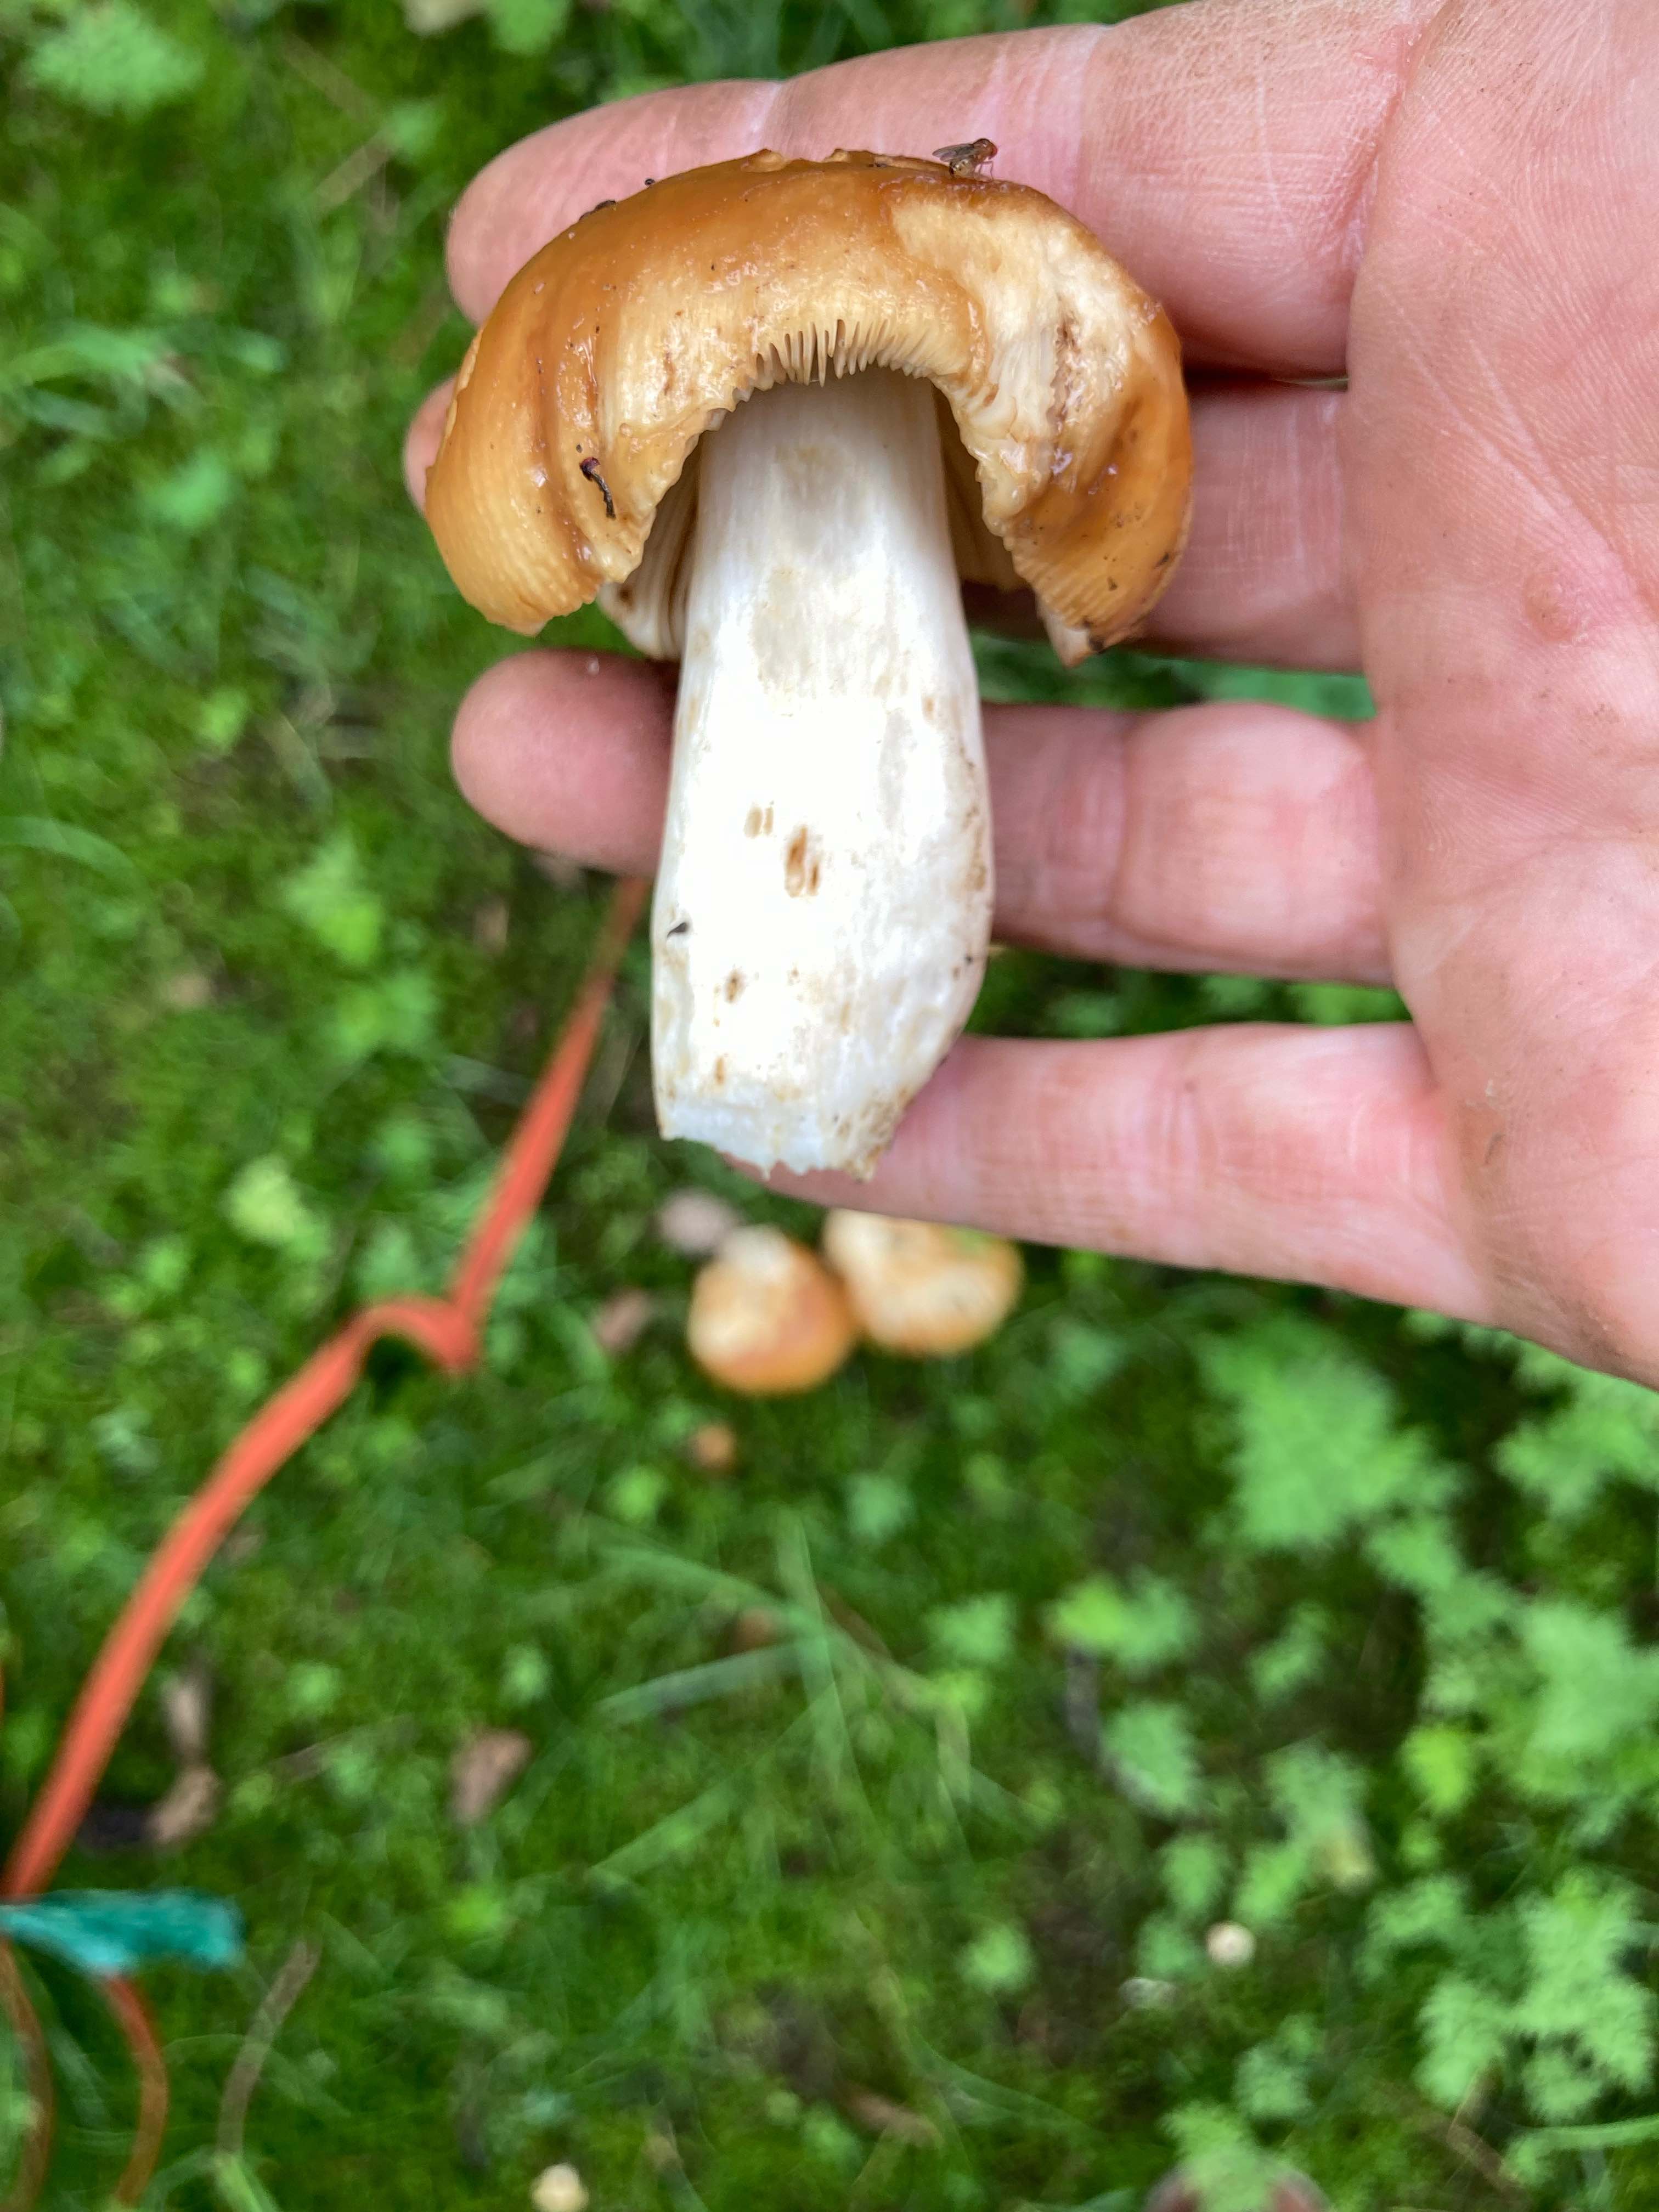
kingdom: Fungi
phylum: Basidiomycota
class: Agaricomycetes
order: Russulales
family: Russulaceae
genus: Russula
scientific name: Russula foetens
